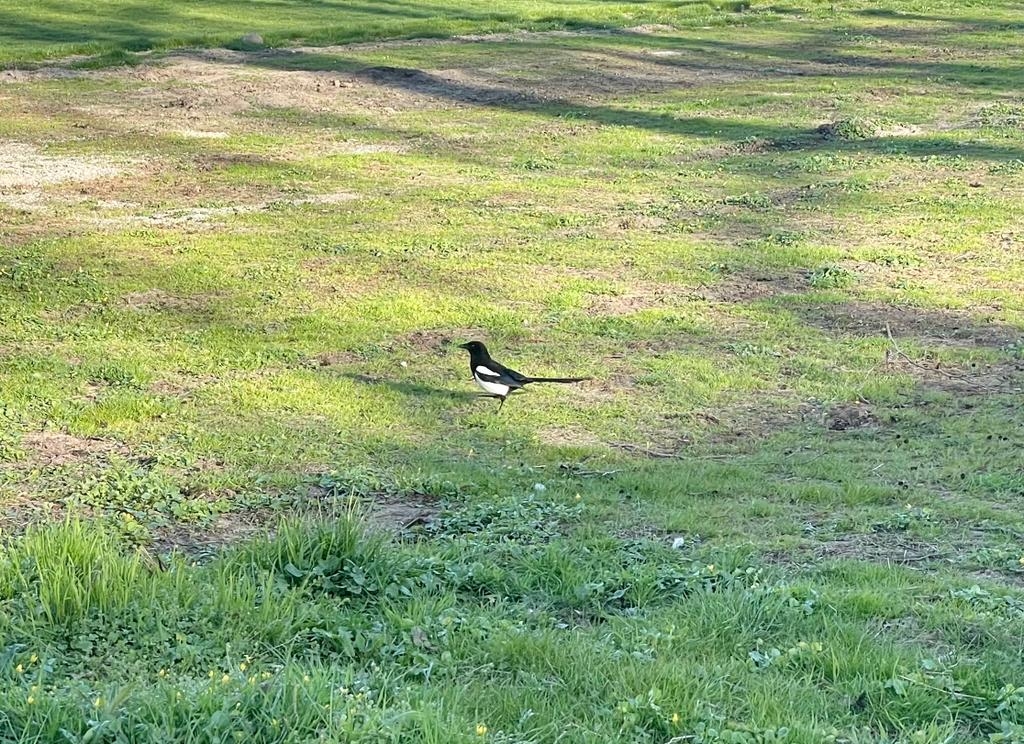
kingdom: Animalia
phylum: Chordata
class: Aves
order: Passeriformes
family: Corvidae
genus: Pica
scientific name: Pica pica
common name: Husskade
